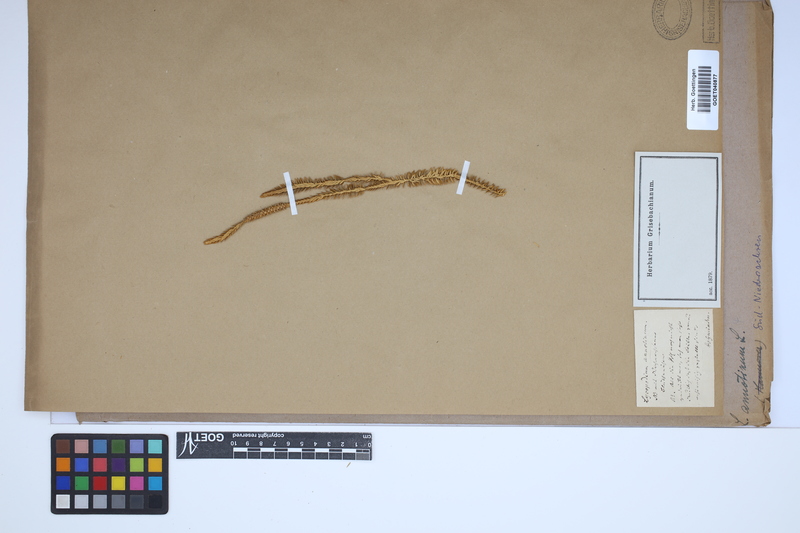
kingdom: Plantae
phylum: Tracheophyta
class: Lycopodiopsida
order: Lycopodiales
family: Lycopodiaceae
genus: Spinulum
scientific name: Spinulum annotinum
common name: Interrupted club-moss
